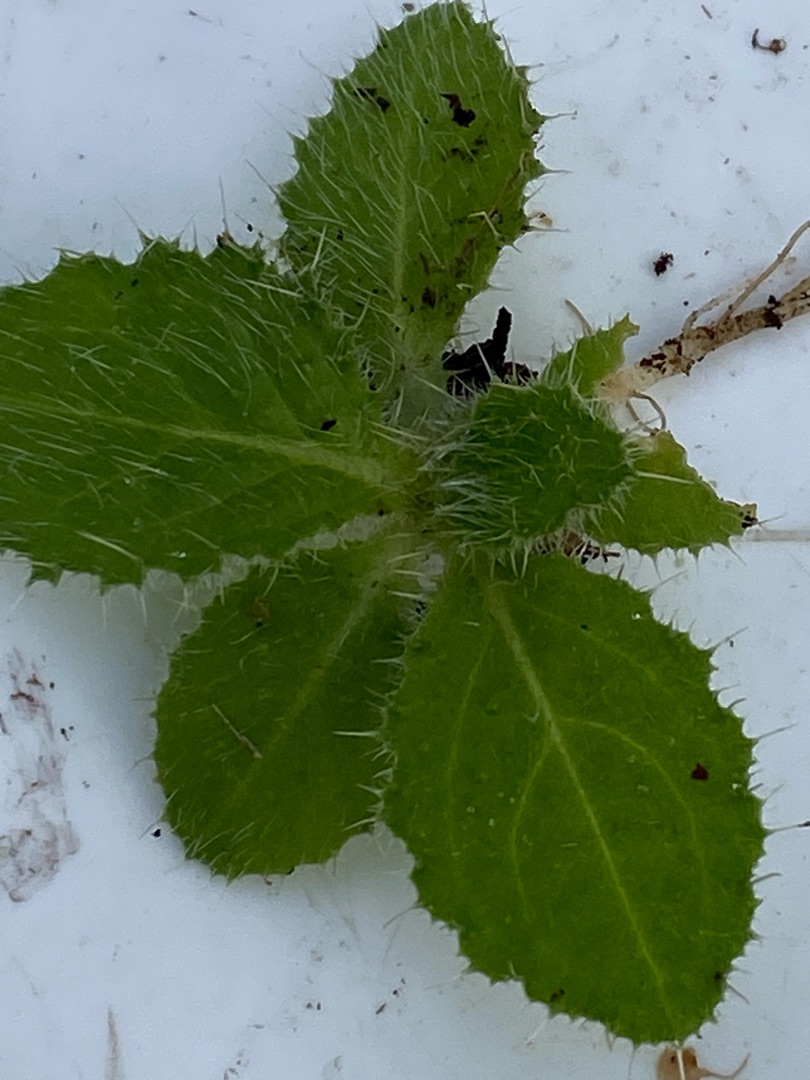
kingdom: Plantae
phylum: Tracheophyta
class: Magnoliopsida
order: Asterales
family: Asteraceae
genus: Cirsium
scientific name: Cirsium vulgare
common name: Horse-tidsel
